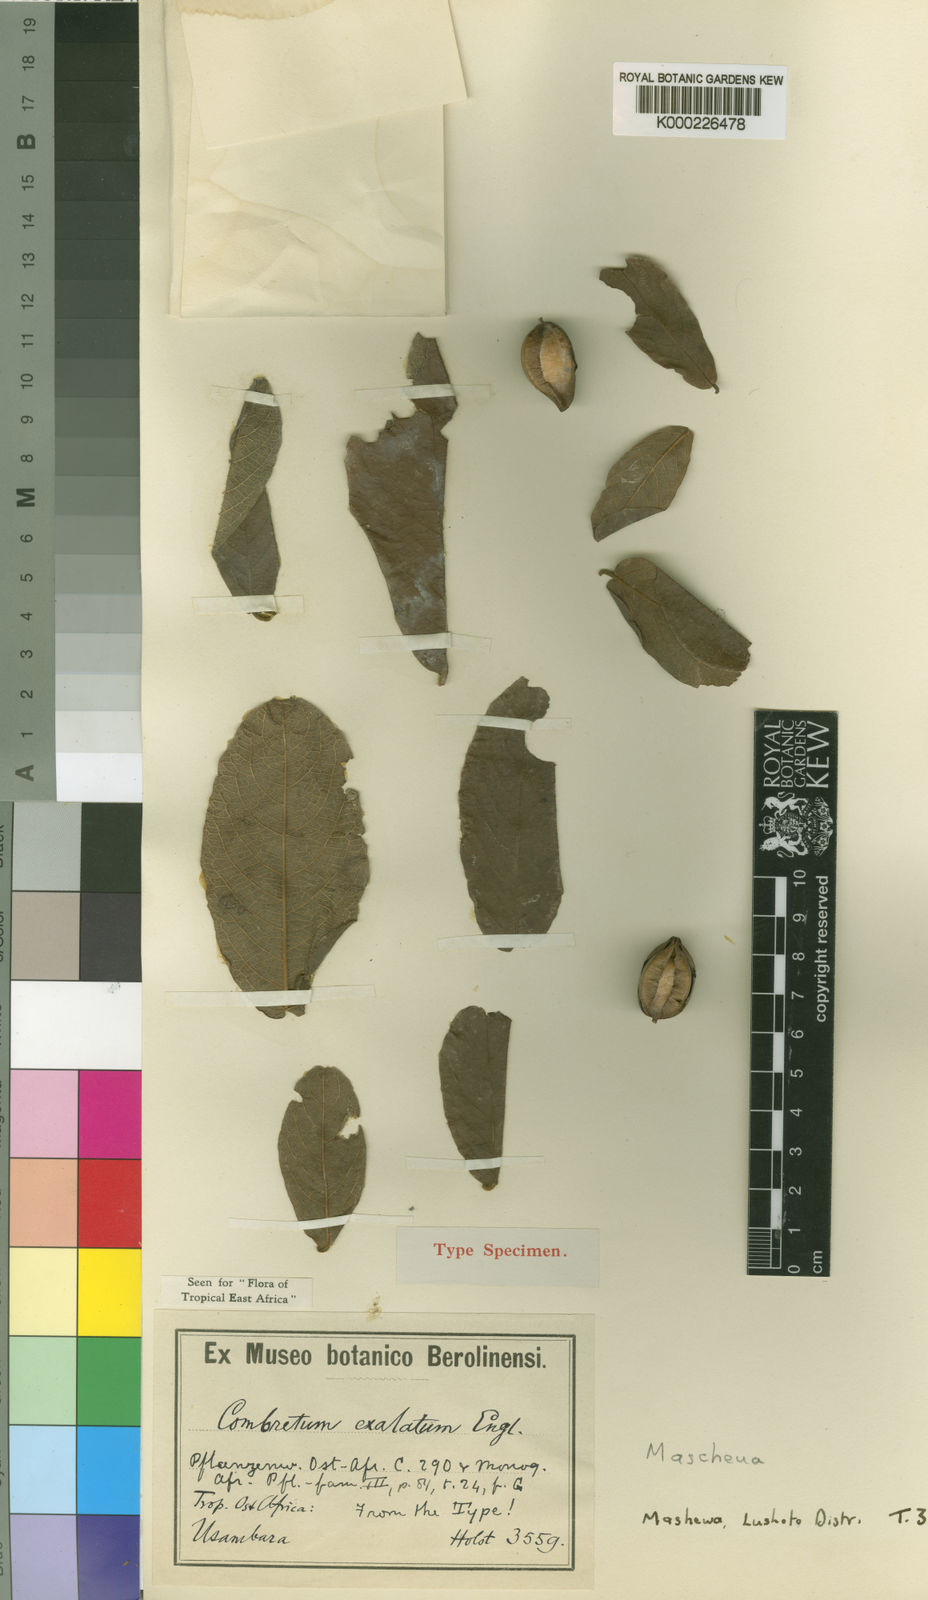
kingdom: Plantae
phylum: Tracheophyta
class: Magnoliopsida
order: Myrtales
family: Combretaceae
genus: Combretum
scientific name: Combretum exalatum
